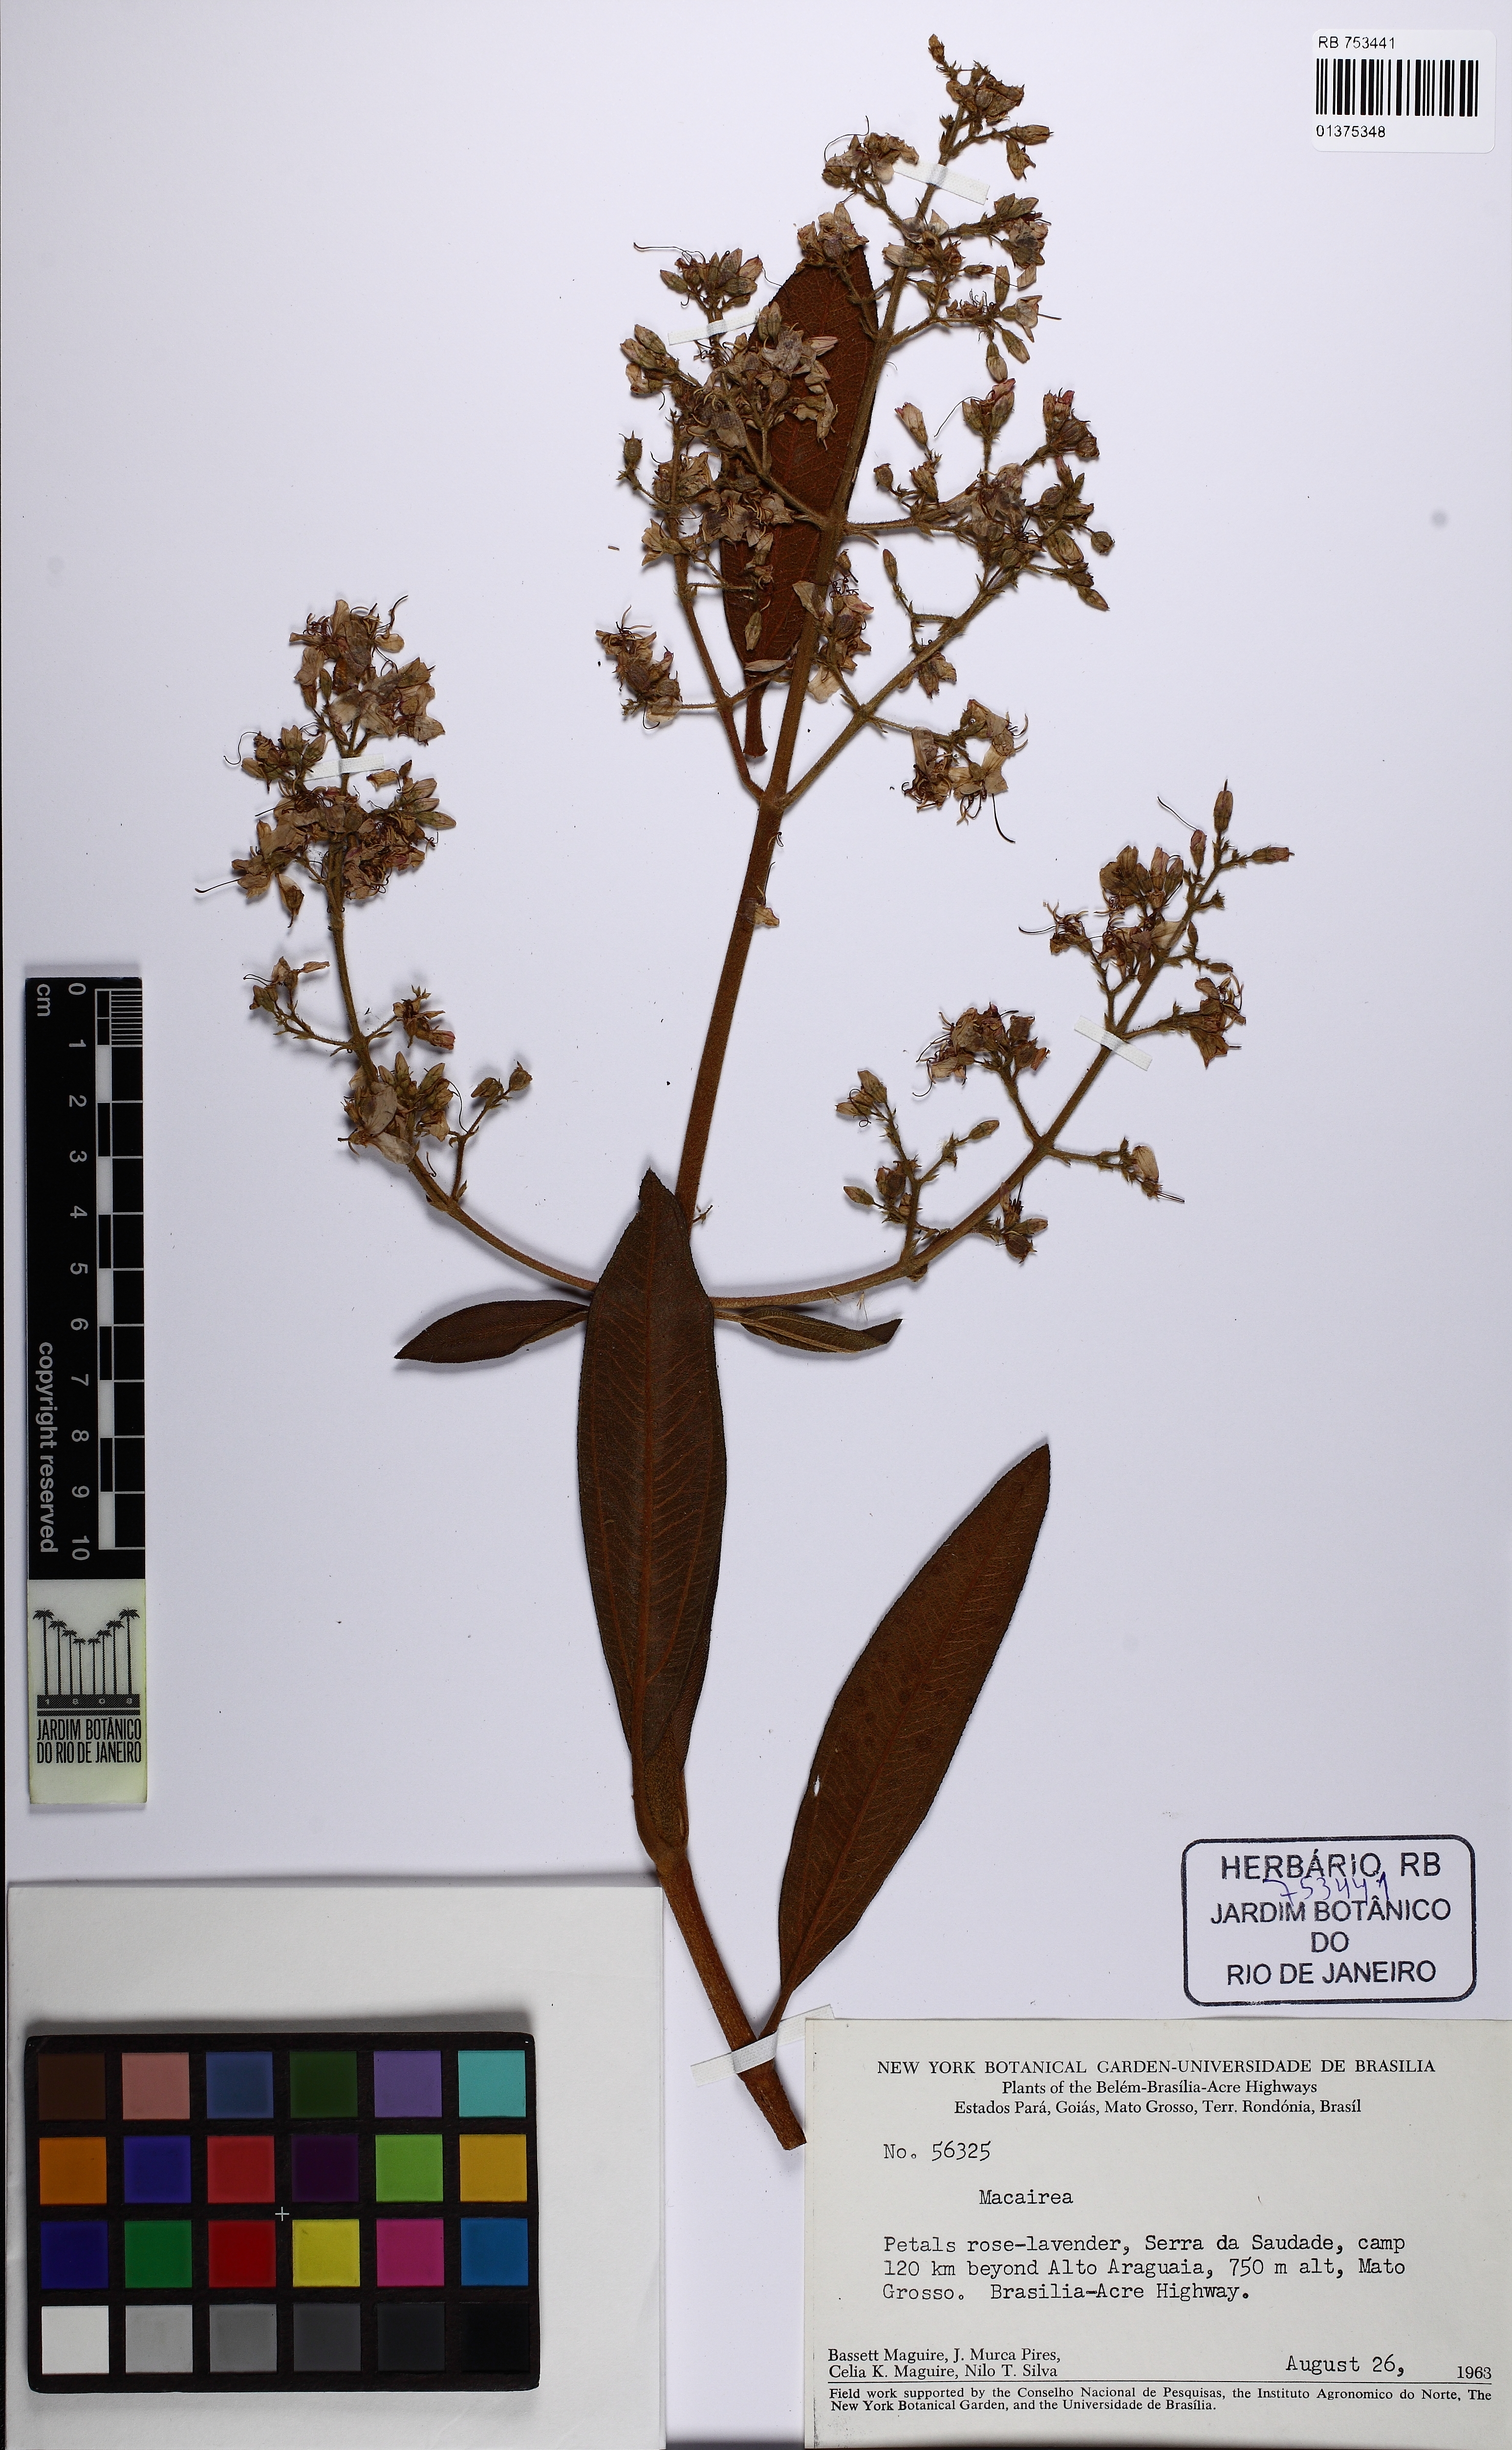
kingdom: Plantae
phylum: Tracheophyta
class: Magnoliopsida
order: Myrtales
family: Melastomataceae
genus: Macairea
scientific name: Macairea radula
